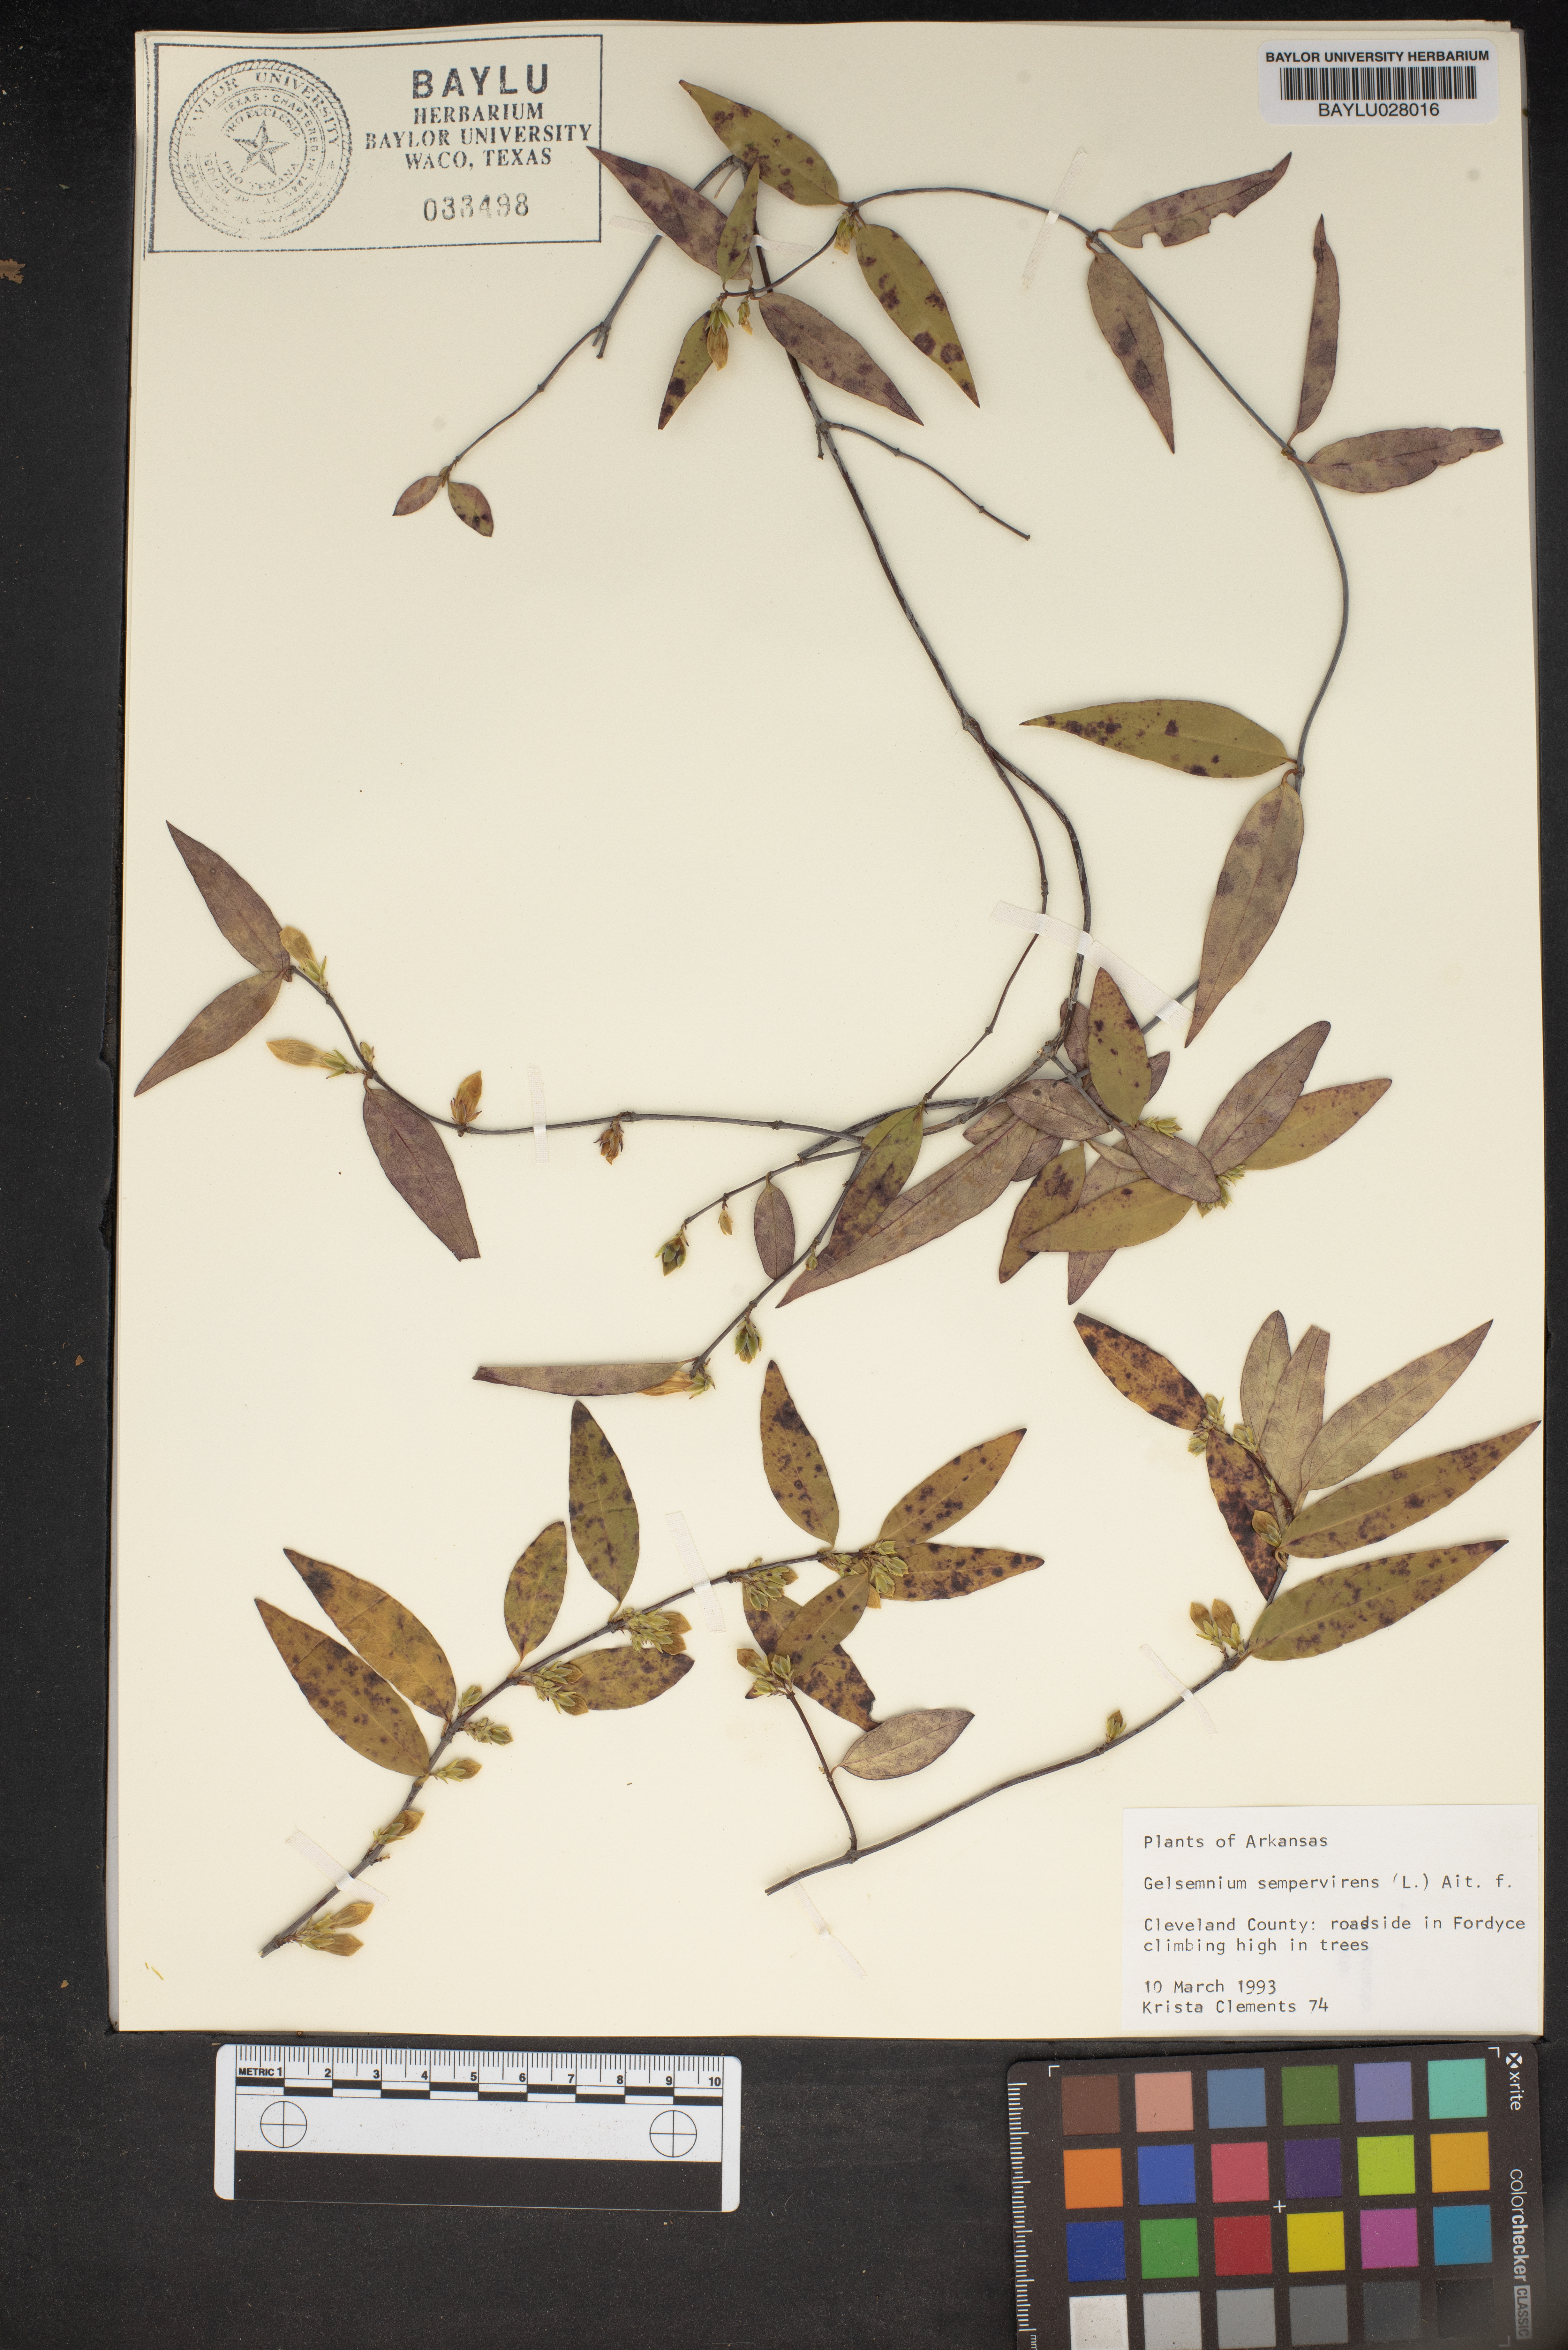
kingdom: Plantae
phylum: Tracheophyta
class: Magnoliopsida
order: Gentianales
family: Gelsemiaceae
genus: Gelsemium
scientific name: Gelsemium sempervirens
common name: Carolina-jasmine
